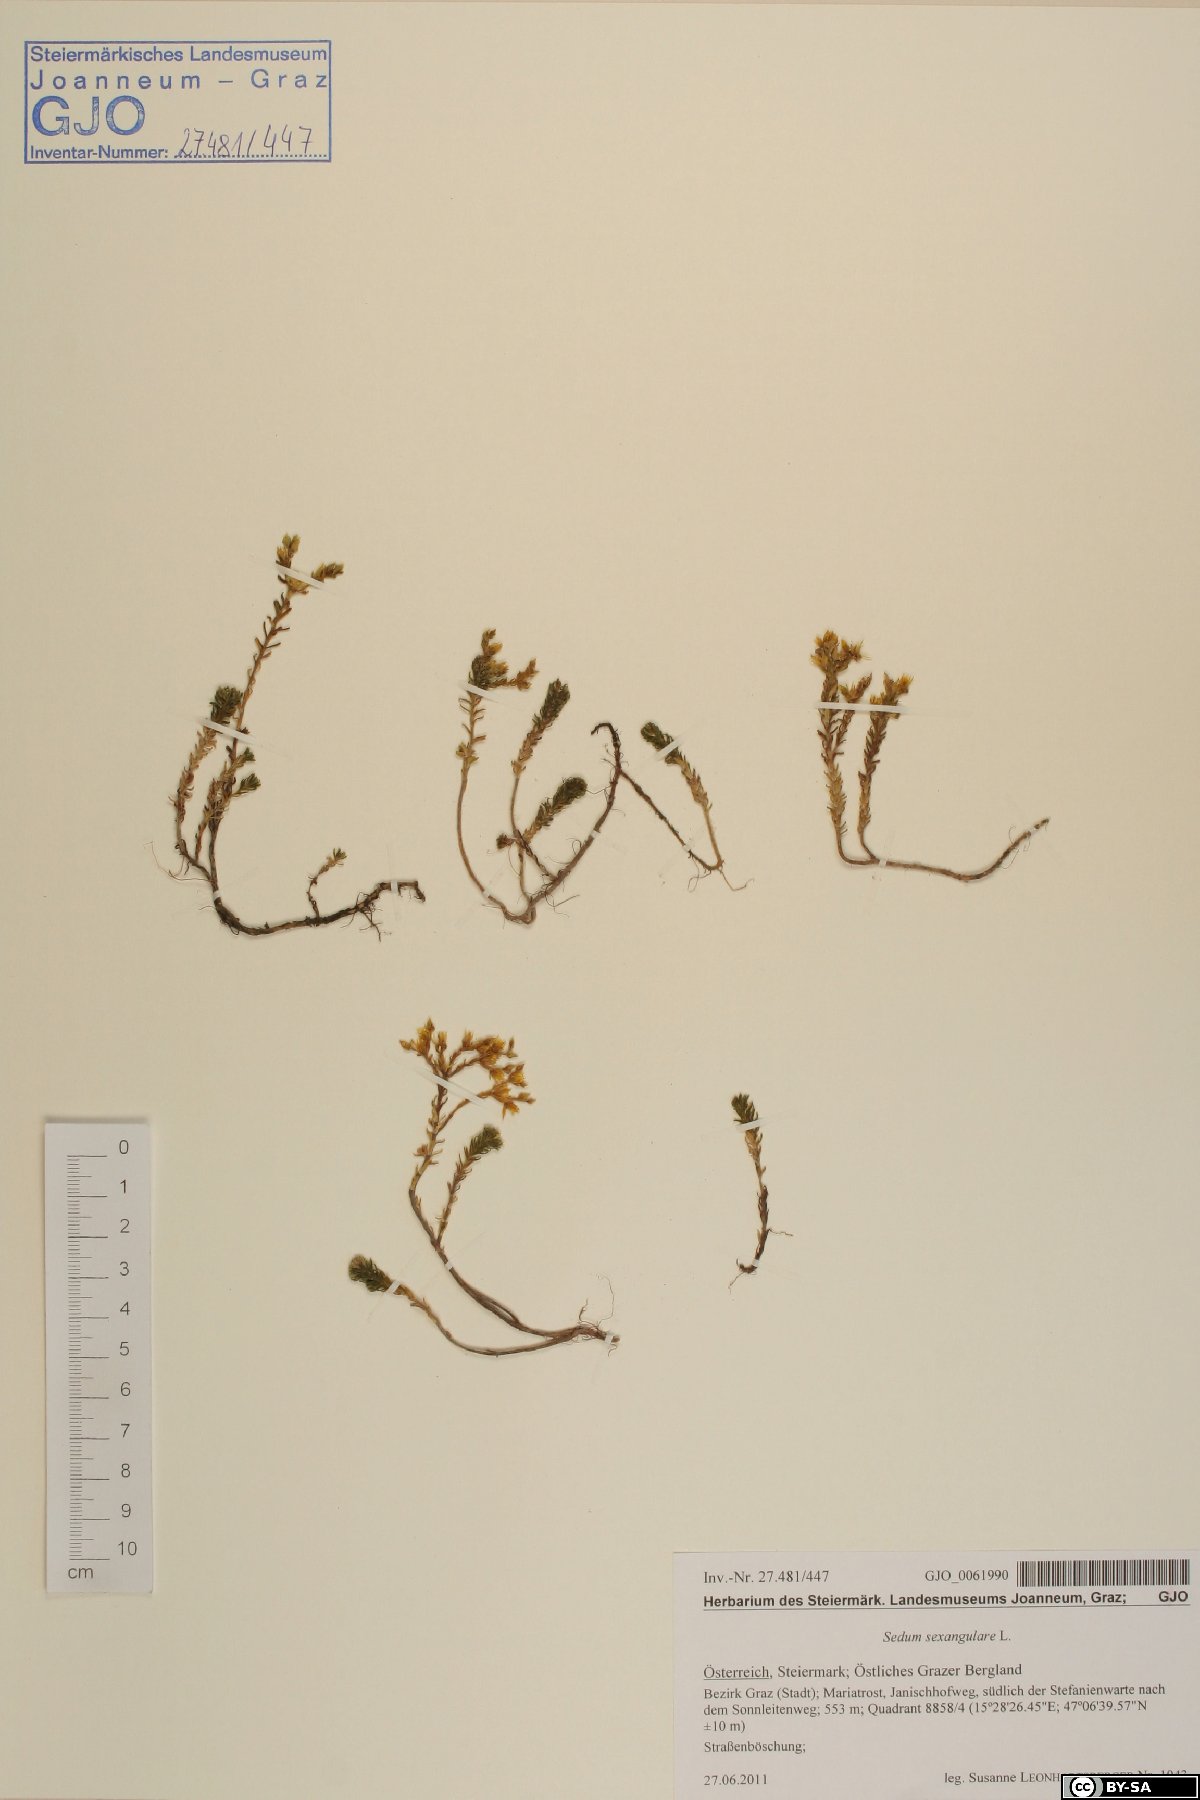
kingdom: Plantae
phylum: Tracheophyta
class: Magnoliopsida
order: Saxifragales
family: Crassulaceae
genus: Sedum
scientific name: Sedum sexangulare
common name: Tasteless stonecrop
